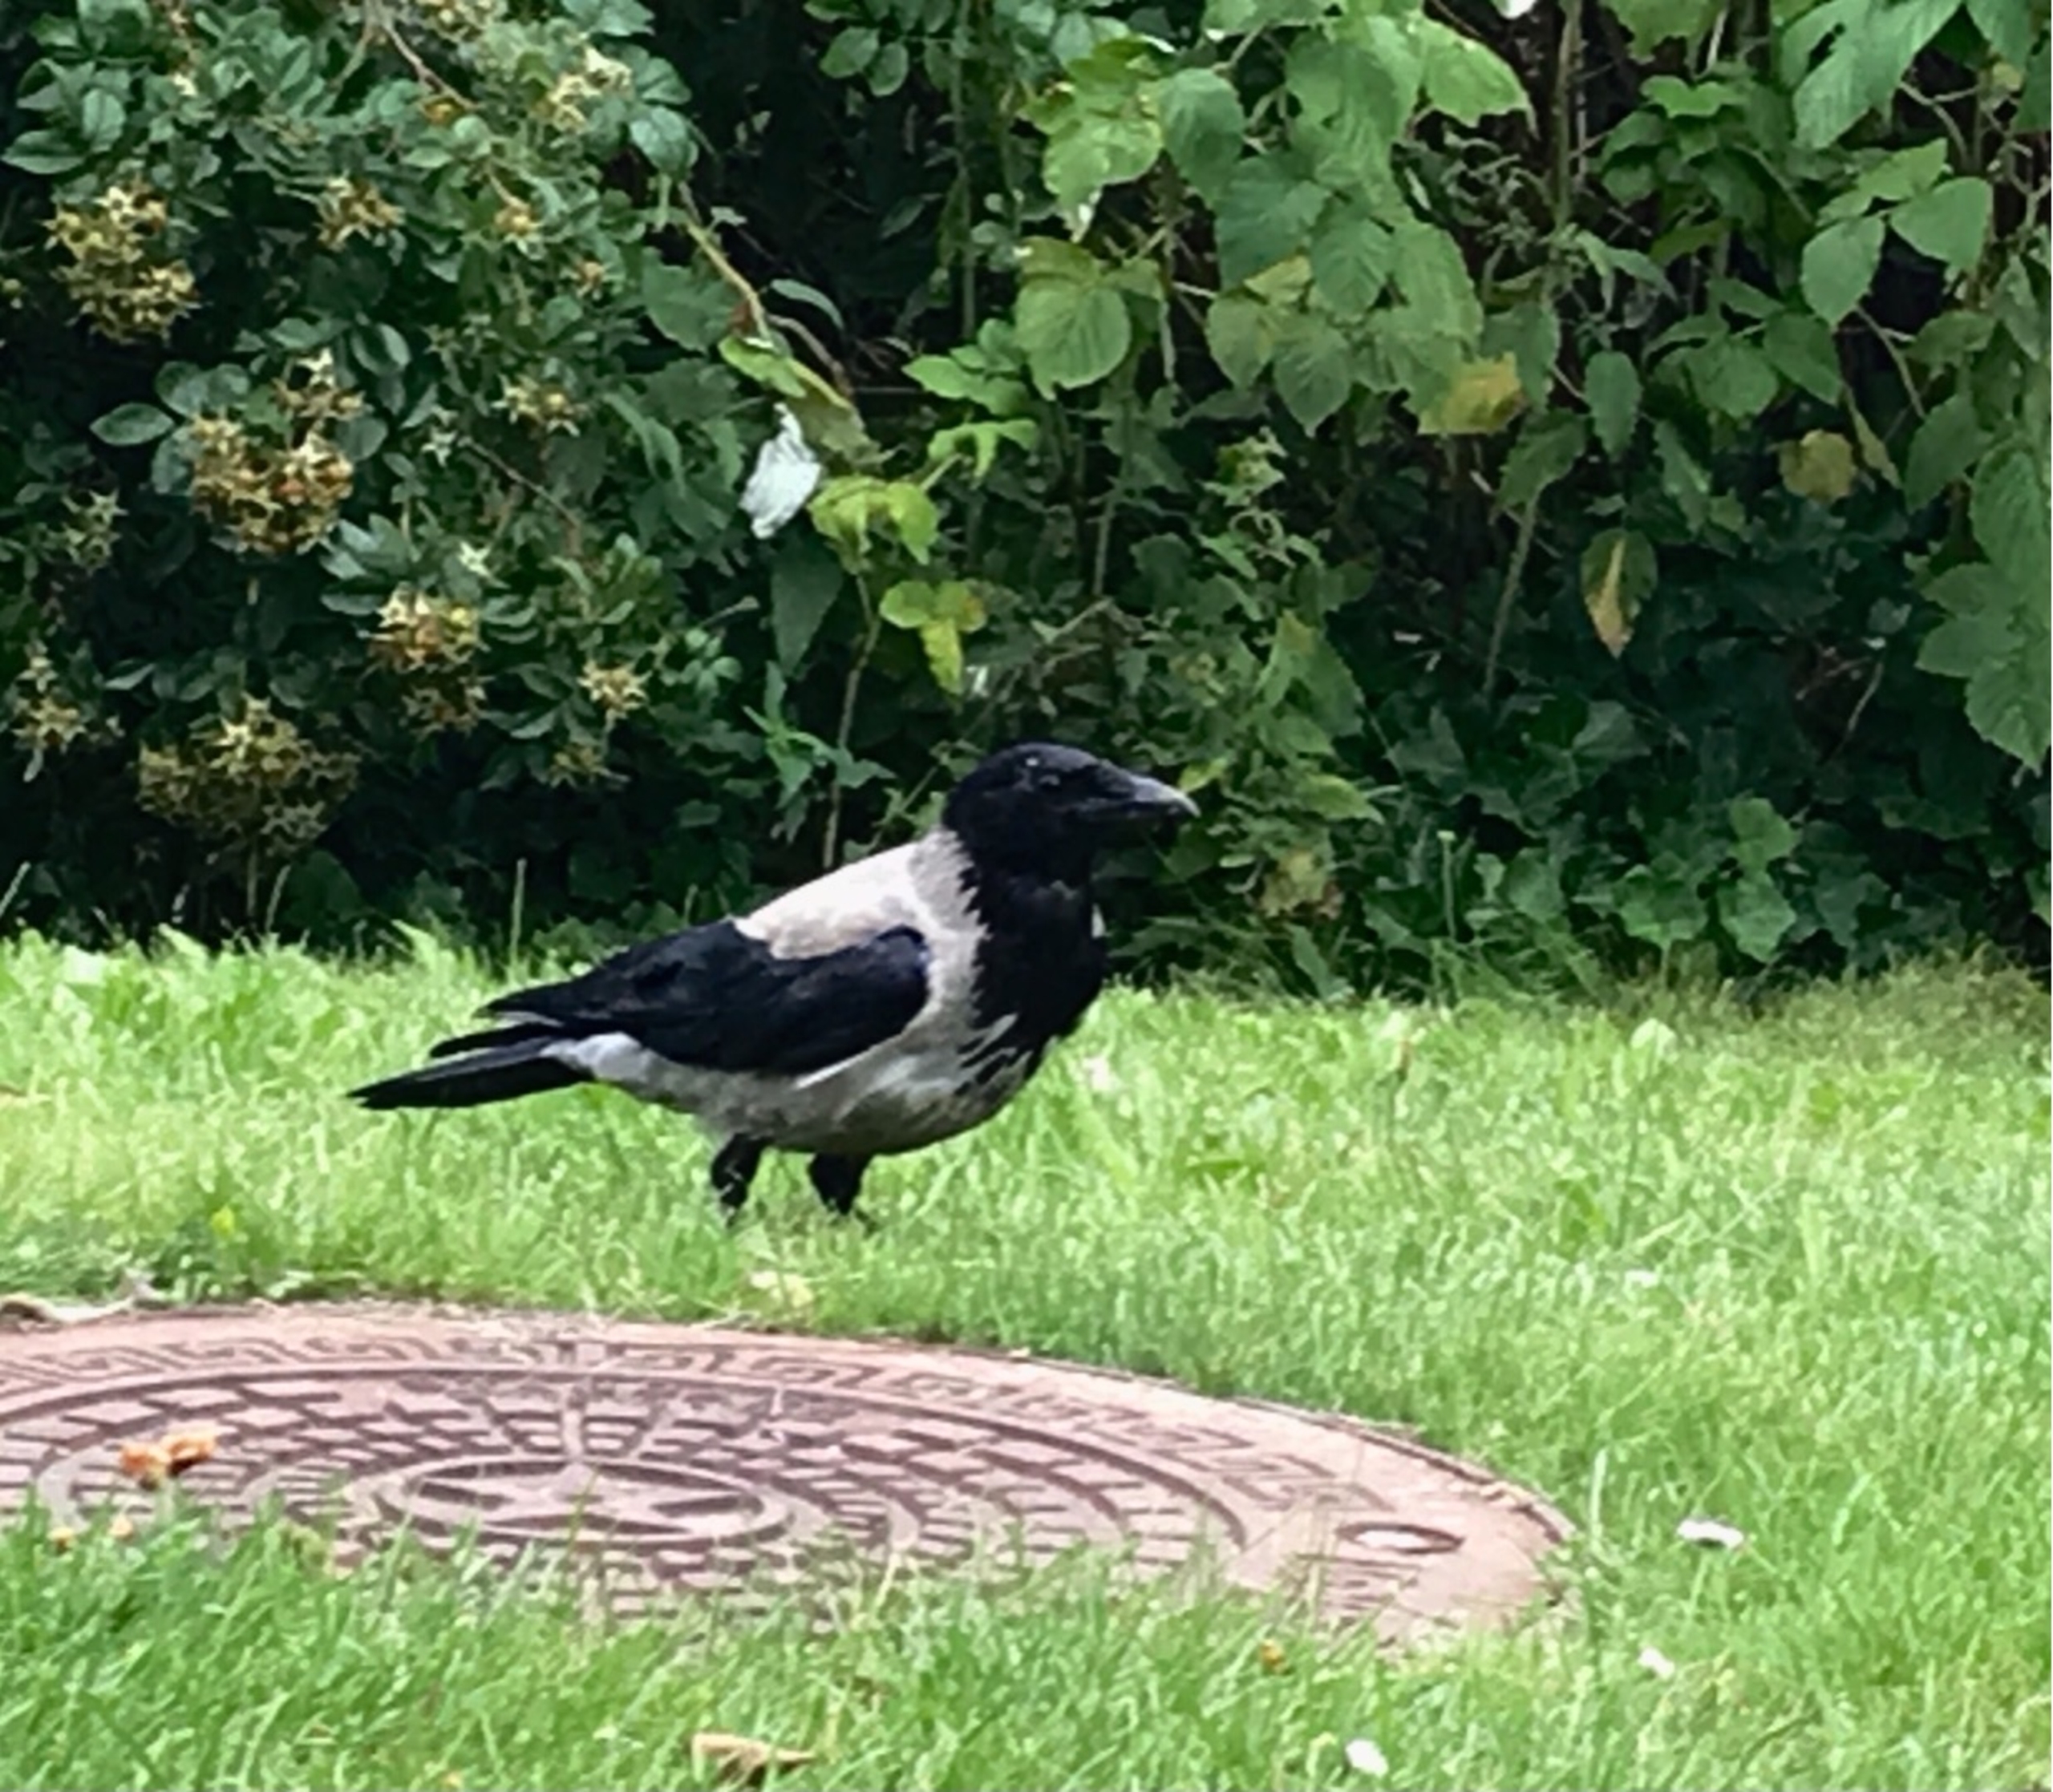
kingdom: Animalia
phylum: Chordata
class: Aves
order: Passeriformes
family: Corvidae
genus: Corvus
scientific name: Corvus cornix
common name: Gråkrage
